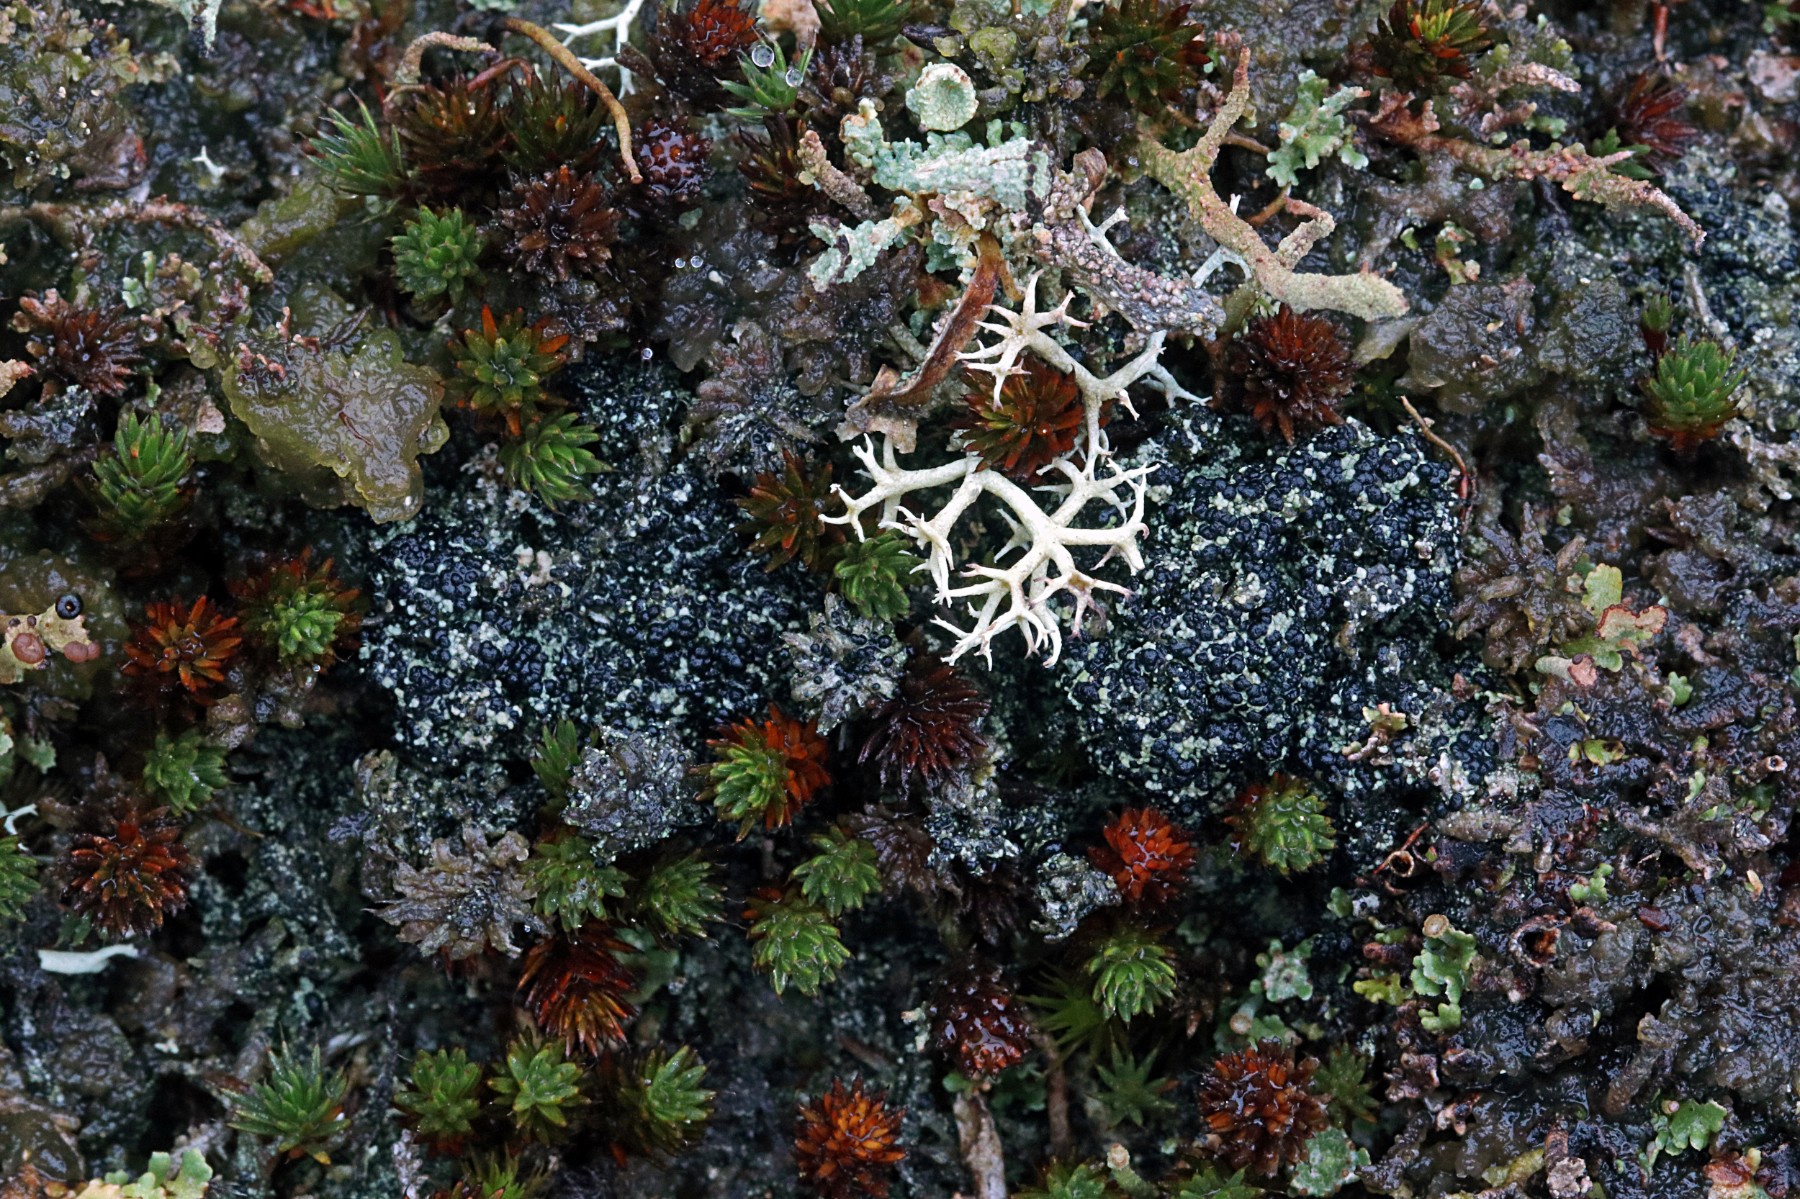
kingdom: Fungi
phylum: Ascomycota
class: Lecanoromycetes
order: Lecanorales
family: Byssolomataceae
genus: Micarea
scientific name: Micarea lignaria
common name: tørve-knaplav
